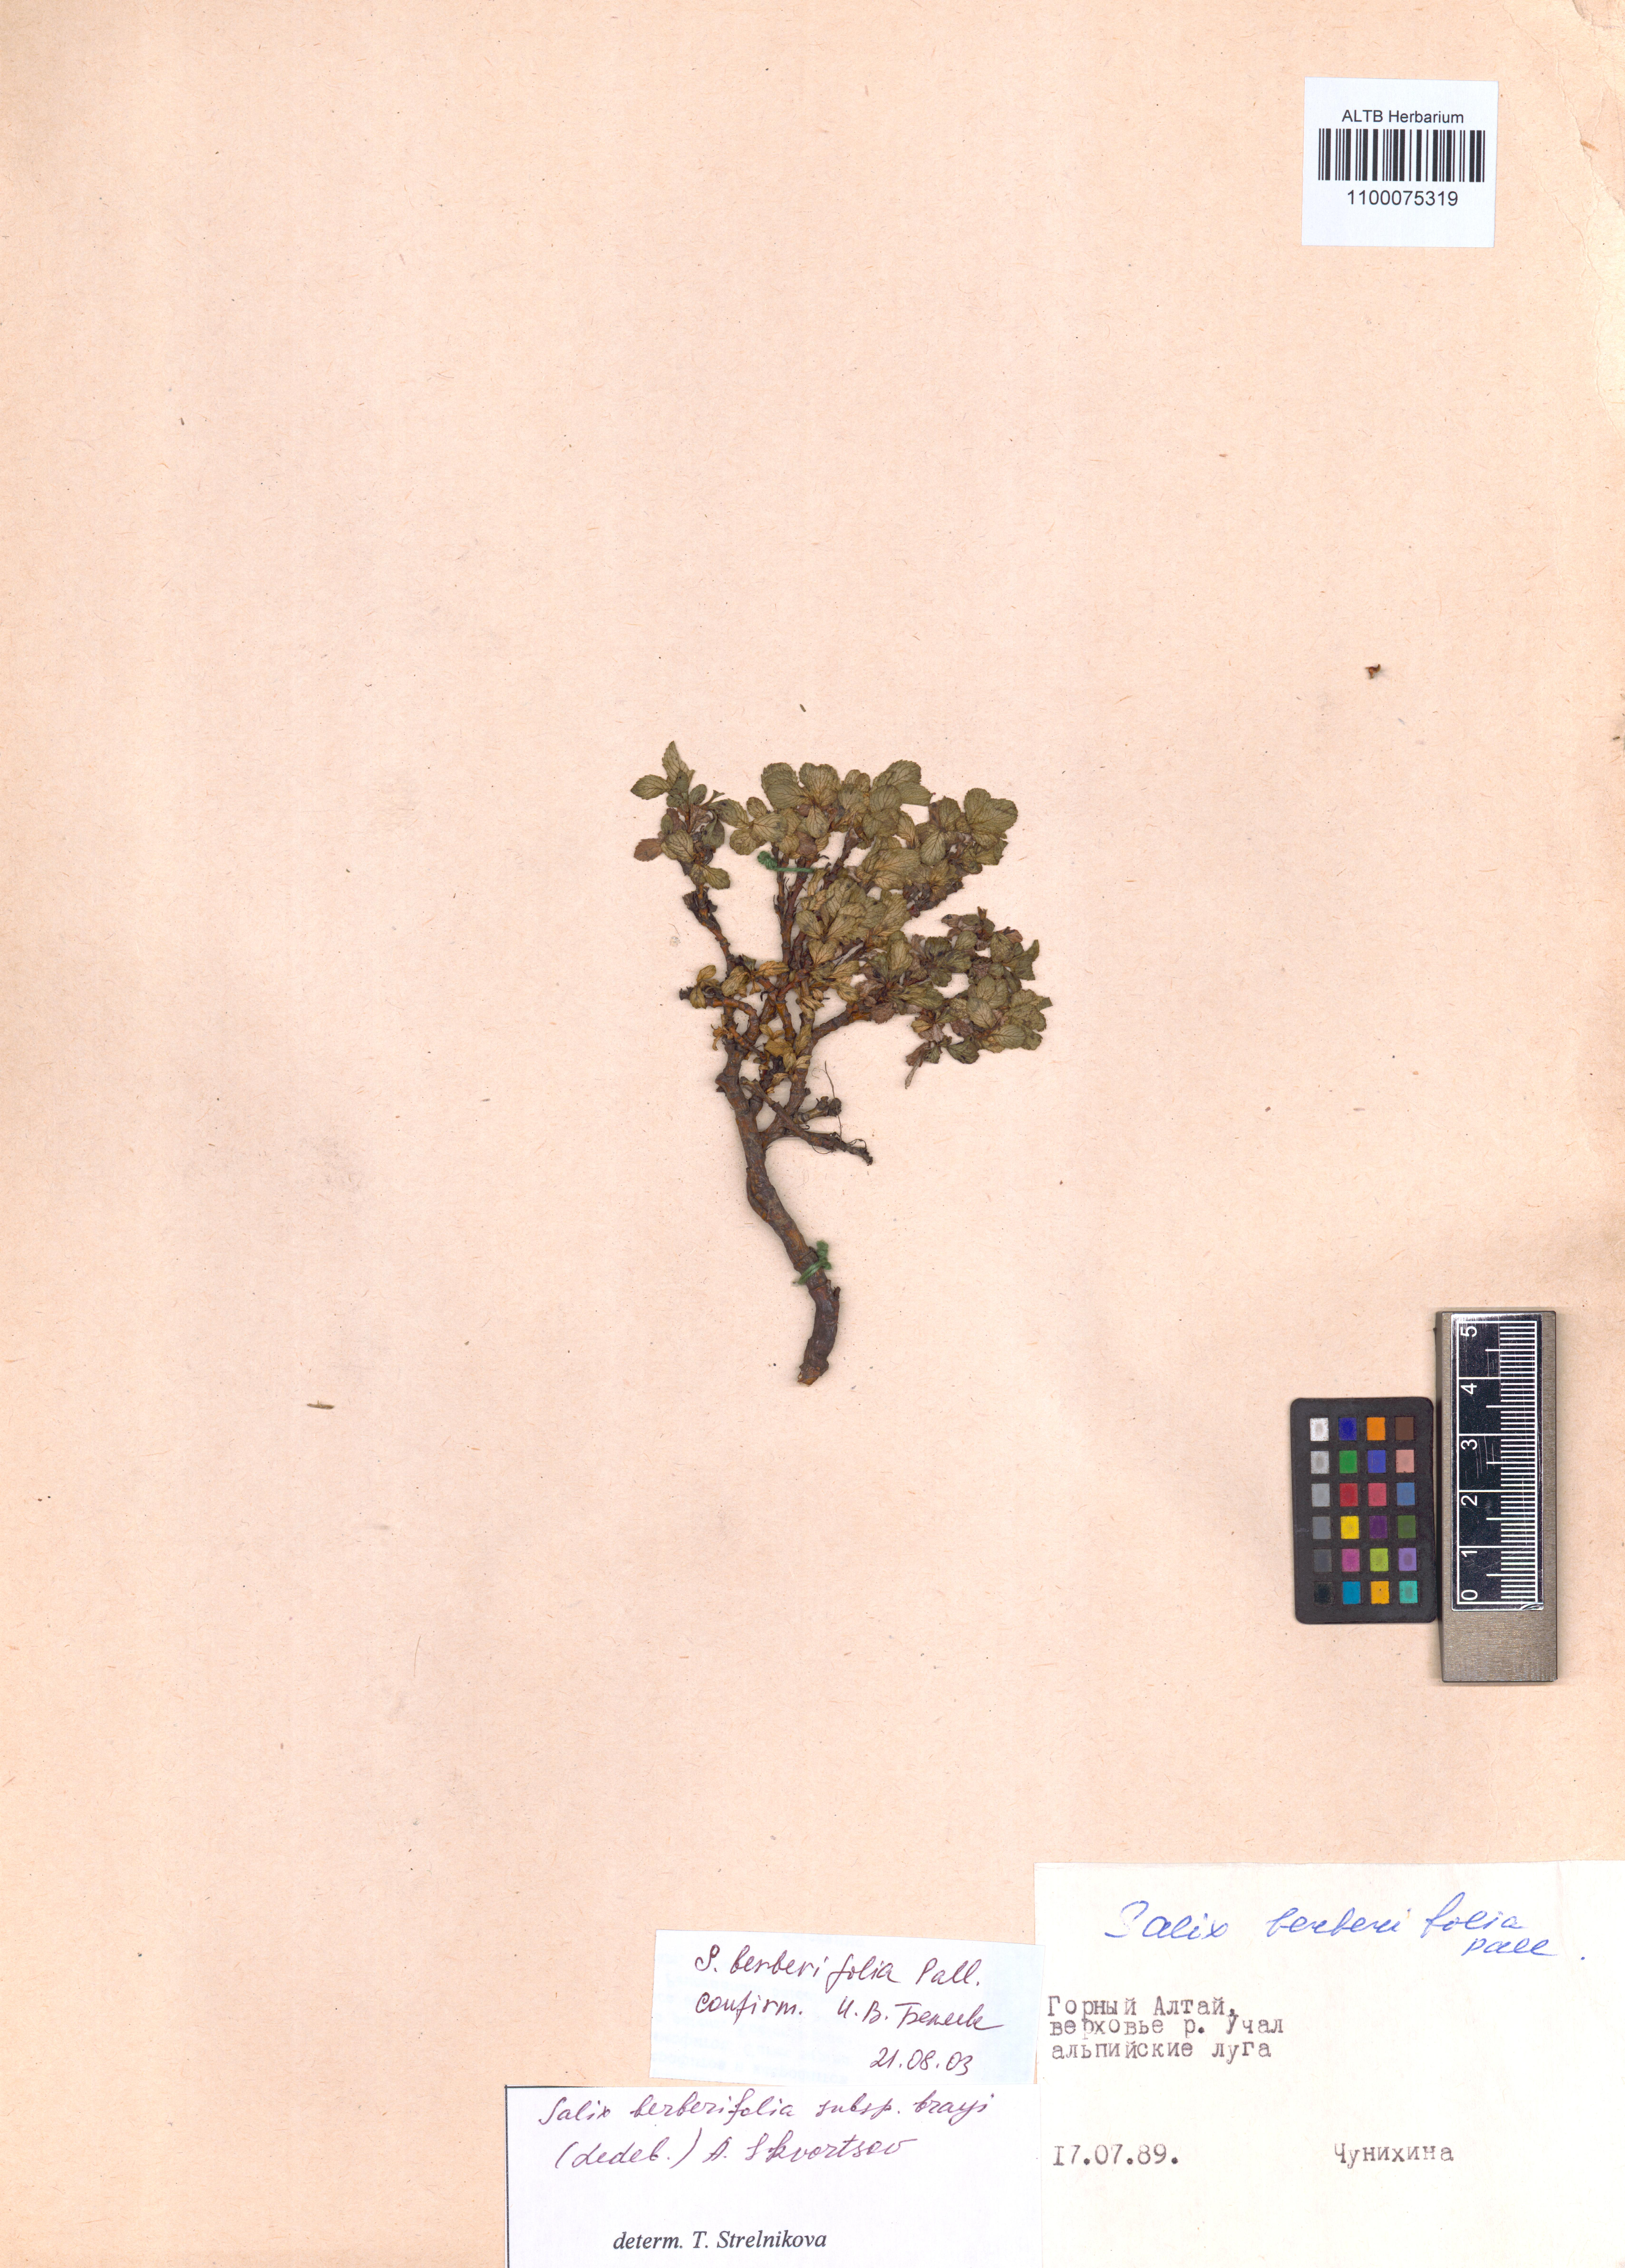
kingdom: Plantae
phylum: Tracheophyta
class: Magnoliopsida
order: Malpighiales
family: Salicaceae
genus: Salix
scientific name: Salix berberifolia
